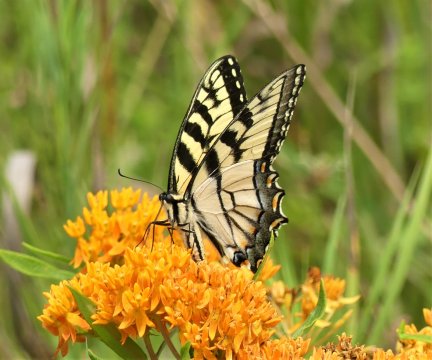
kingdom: Animalia
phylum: Arthropoda
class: Insecta
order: Lepidoptera
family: Papilionidae
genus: Pterourus
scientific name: Pterourus glaucus
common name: Eastern Tiger Swallowtail
